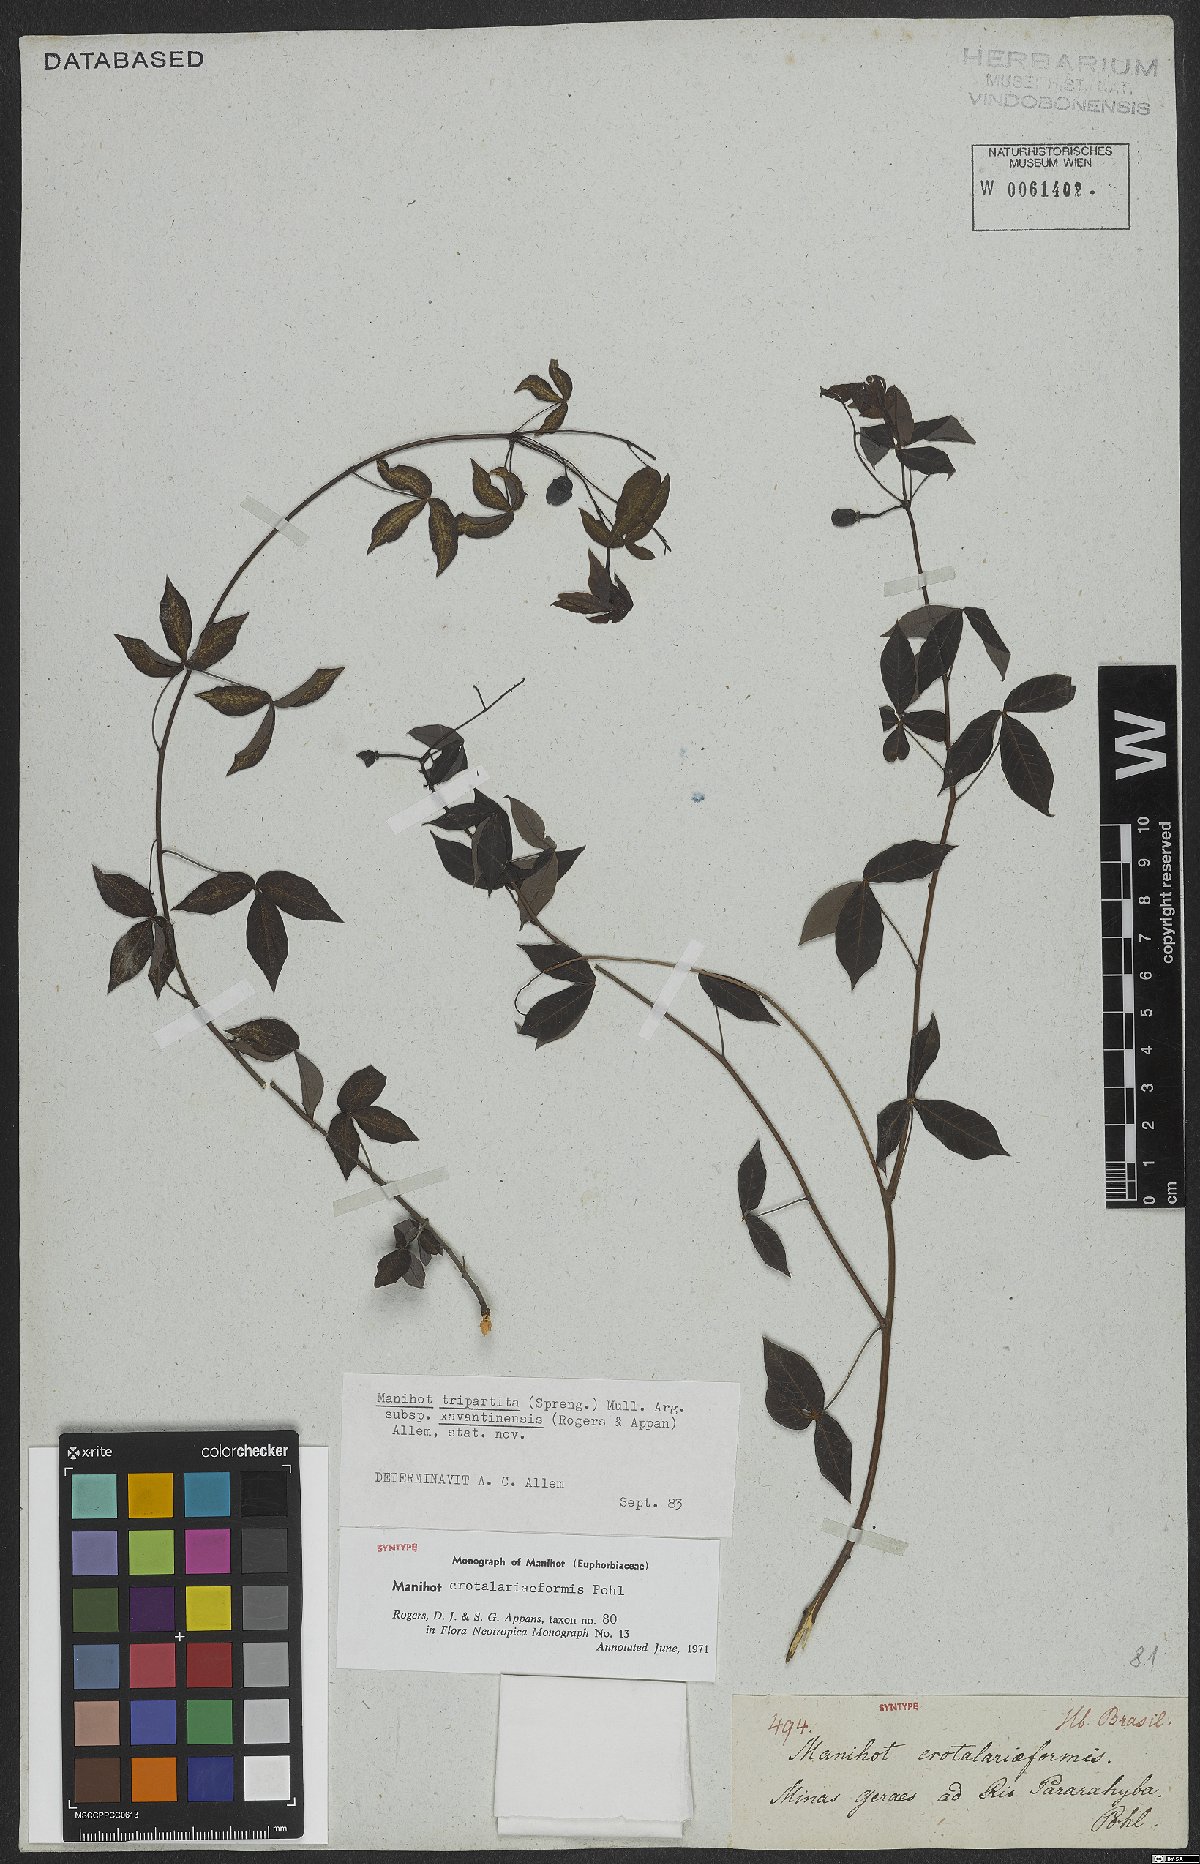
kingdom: Plantae
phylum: Tracheophyta
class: Magnoliopsida
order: Malpighiales
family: Euphorbiaceae
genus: Manihot
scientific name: Manihot crotalariiformis
